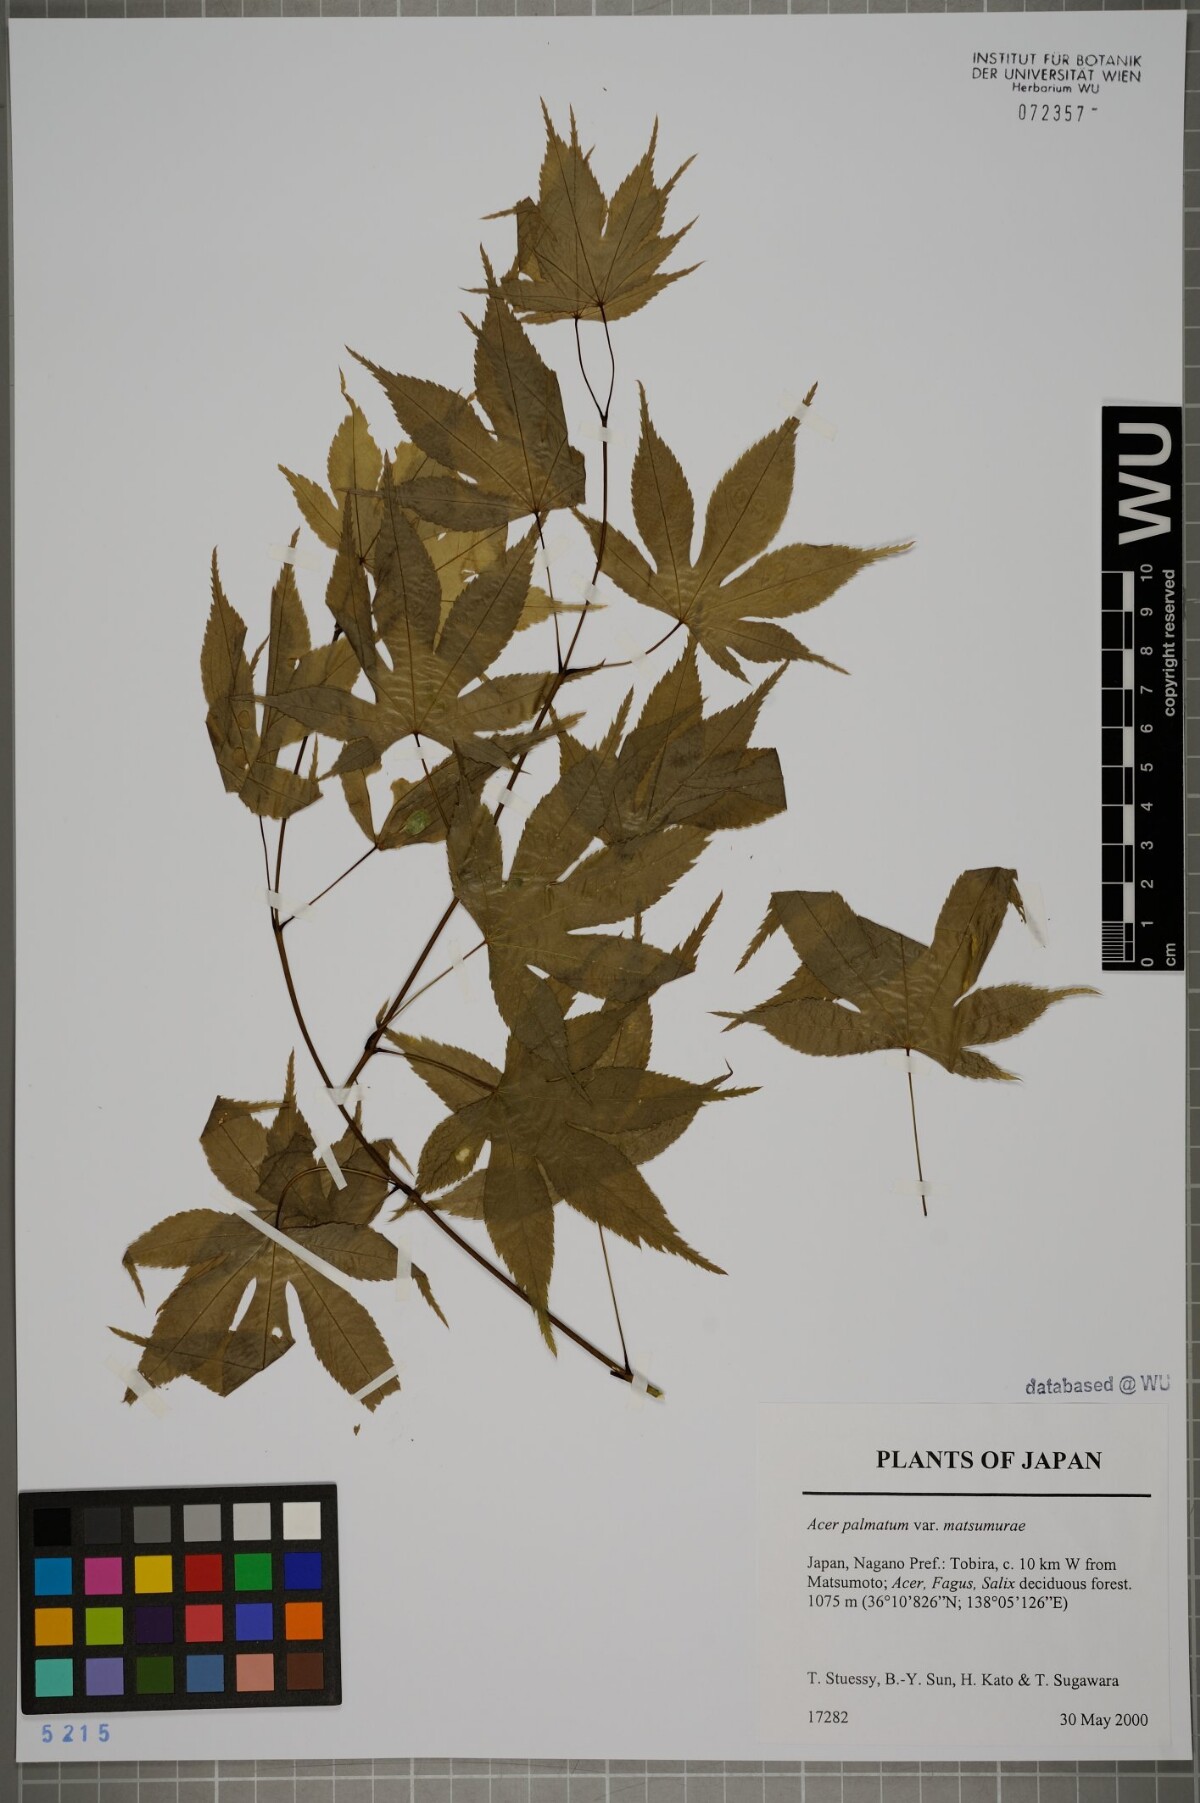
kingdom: Plantae
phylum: Tracheophyta
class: Magnoliopsida
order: Sapindales
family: Sapindaceae
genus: Acer
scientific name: Acer palmatum
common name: Japanese maple
